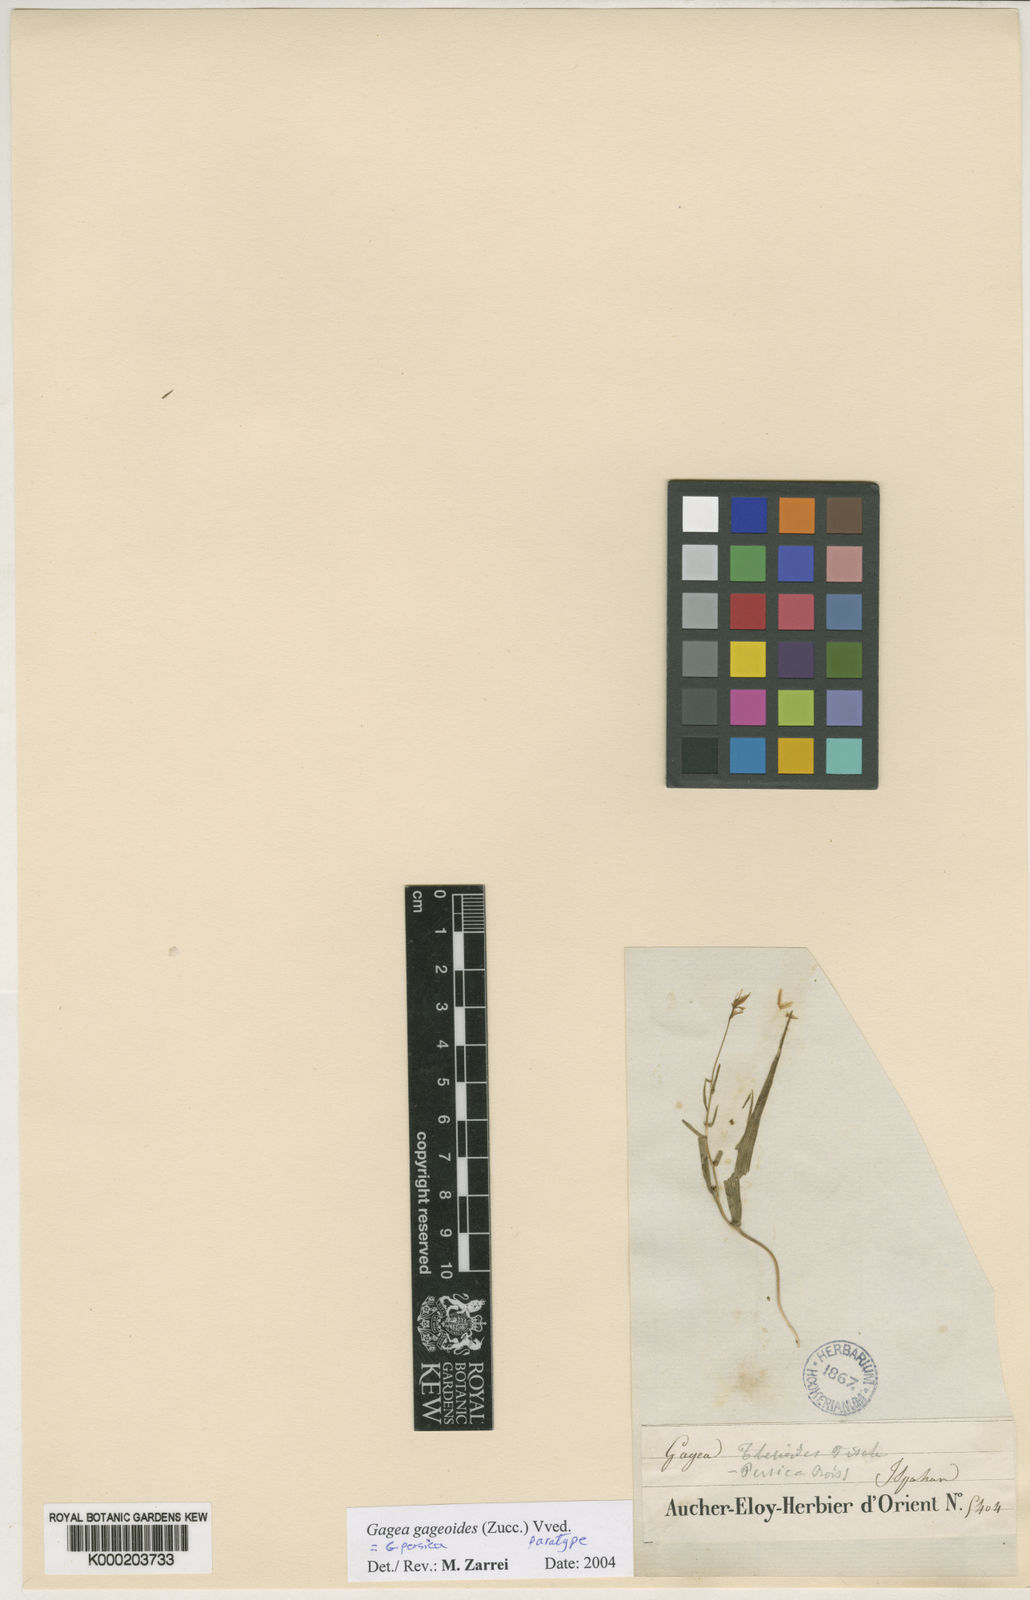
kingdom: Plantae
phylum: Tracheophyta
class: Liliopsida
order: Liliales
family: Liliaceae
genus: Gagea
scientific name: Gagea gageoides
